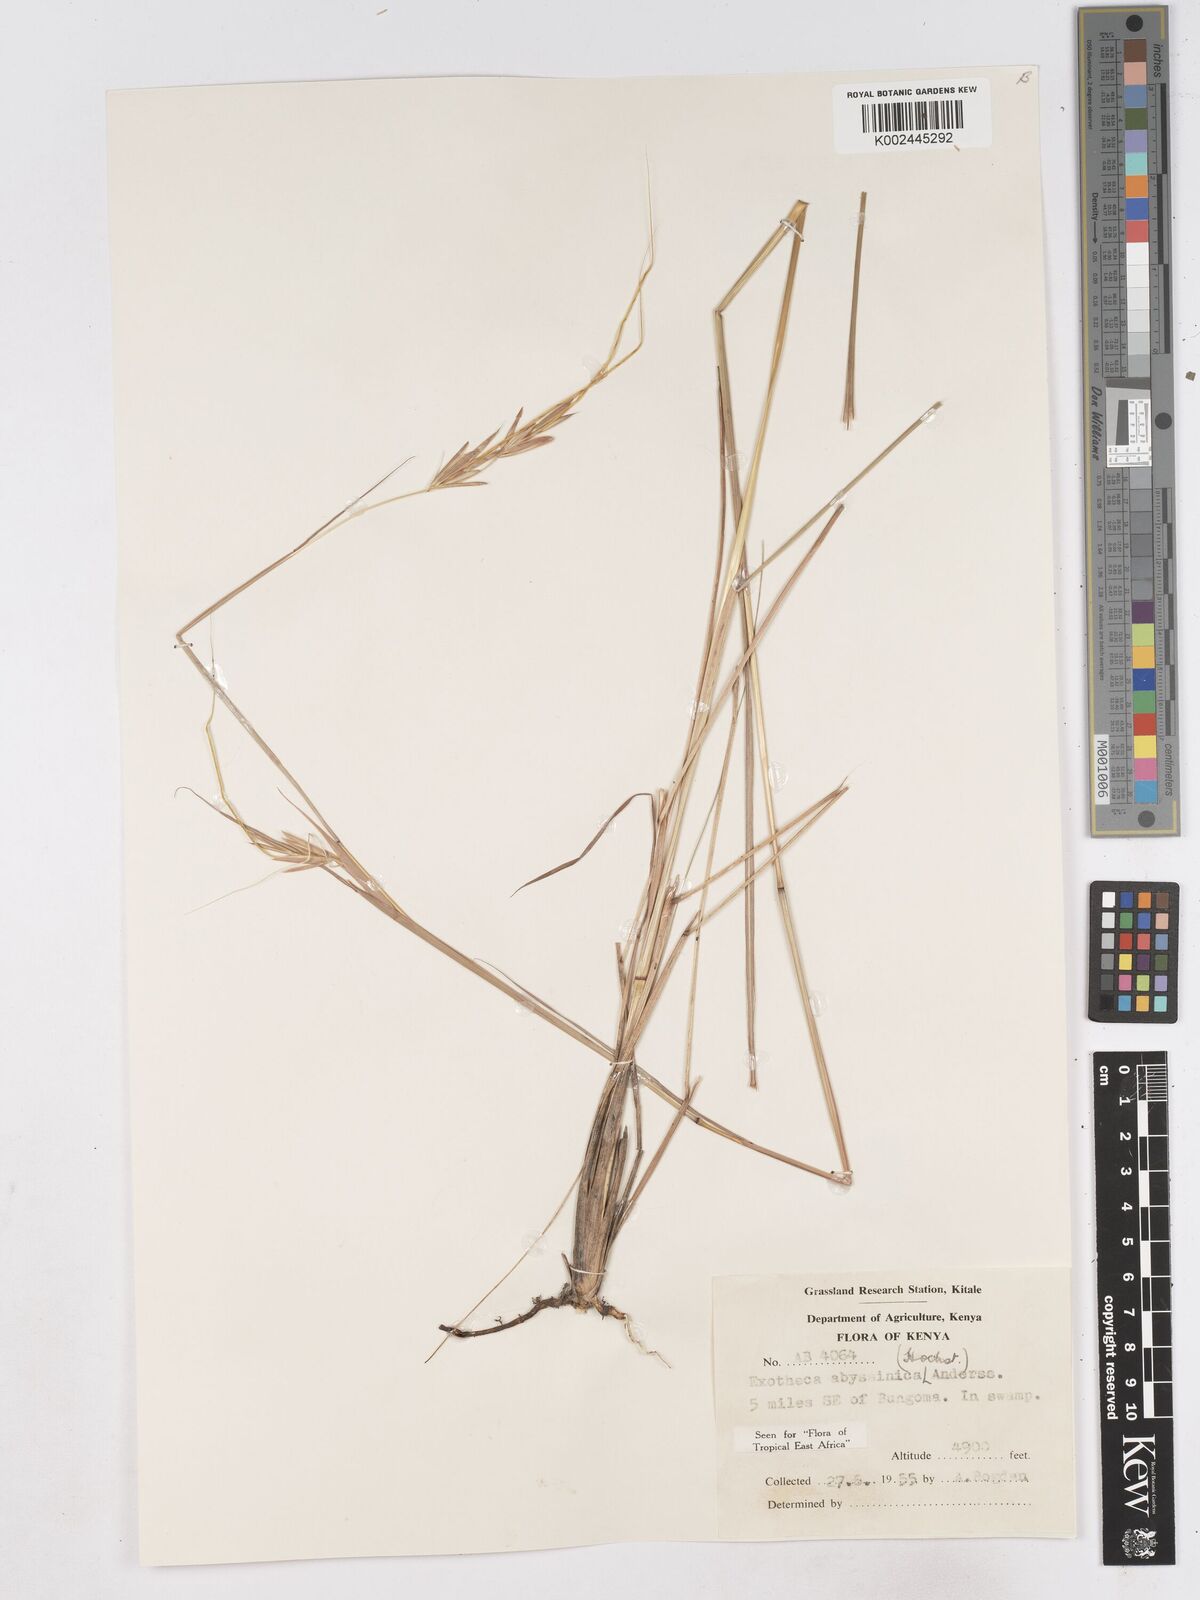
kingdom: Plantae
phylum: Tracheophyta
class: Liliopsida
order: Poales
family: Poaceae
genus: Exotheca
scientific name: Exotheca abyssinica
